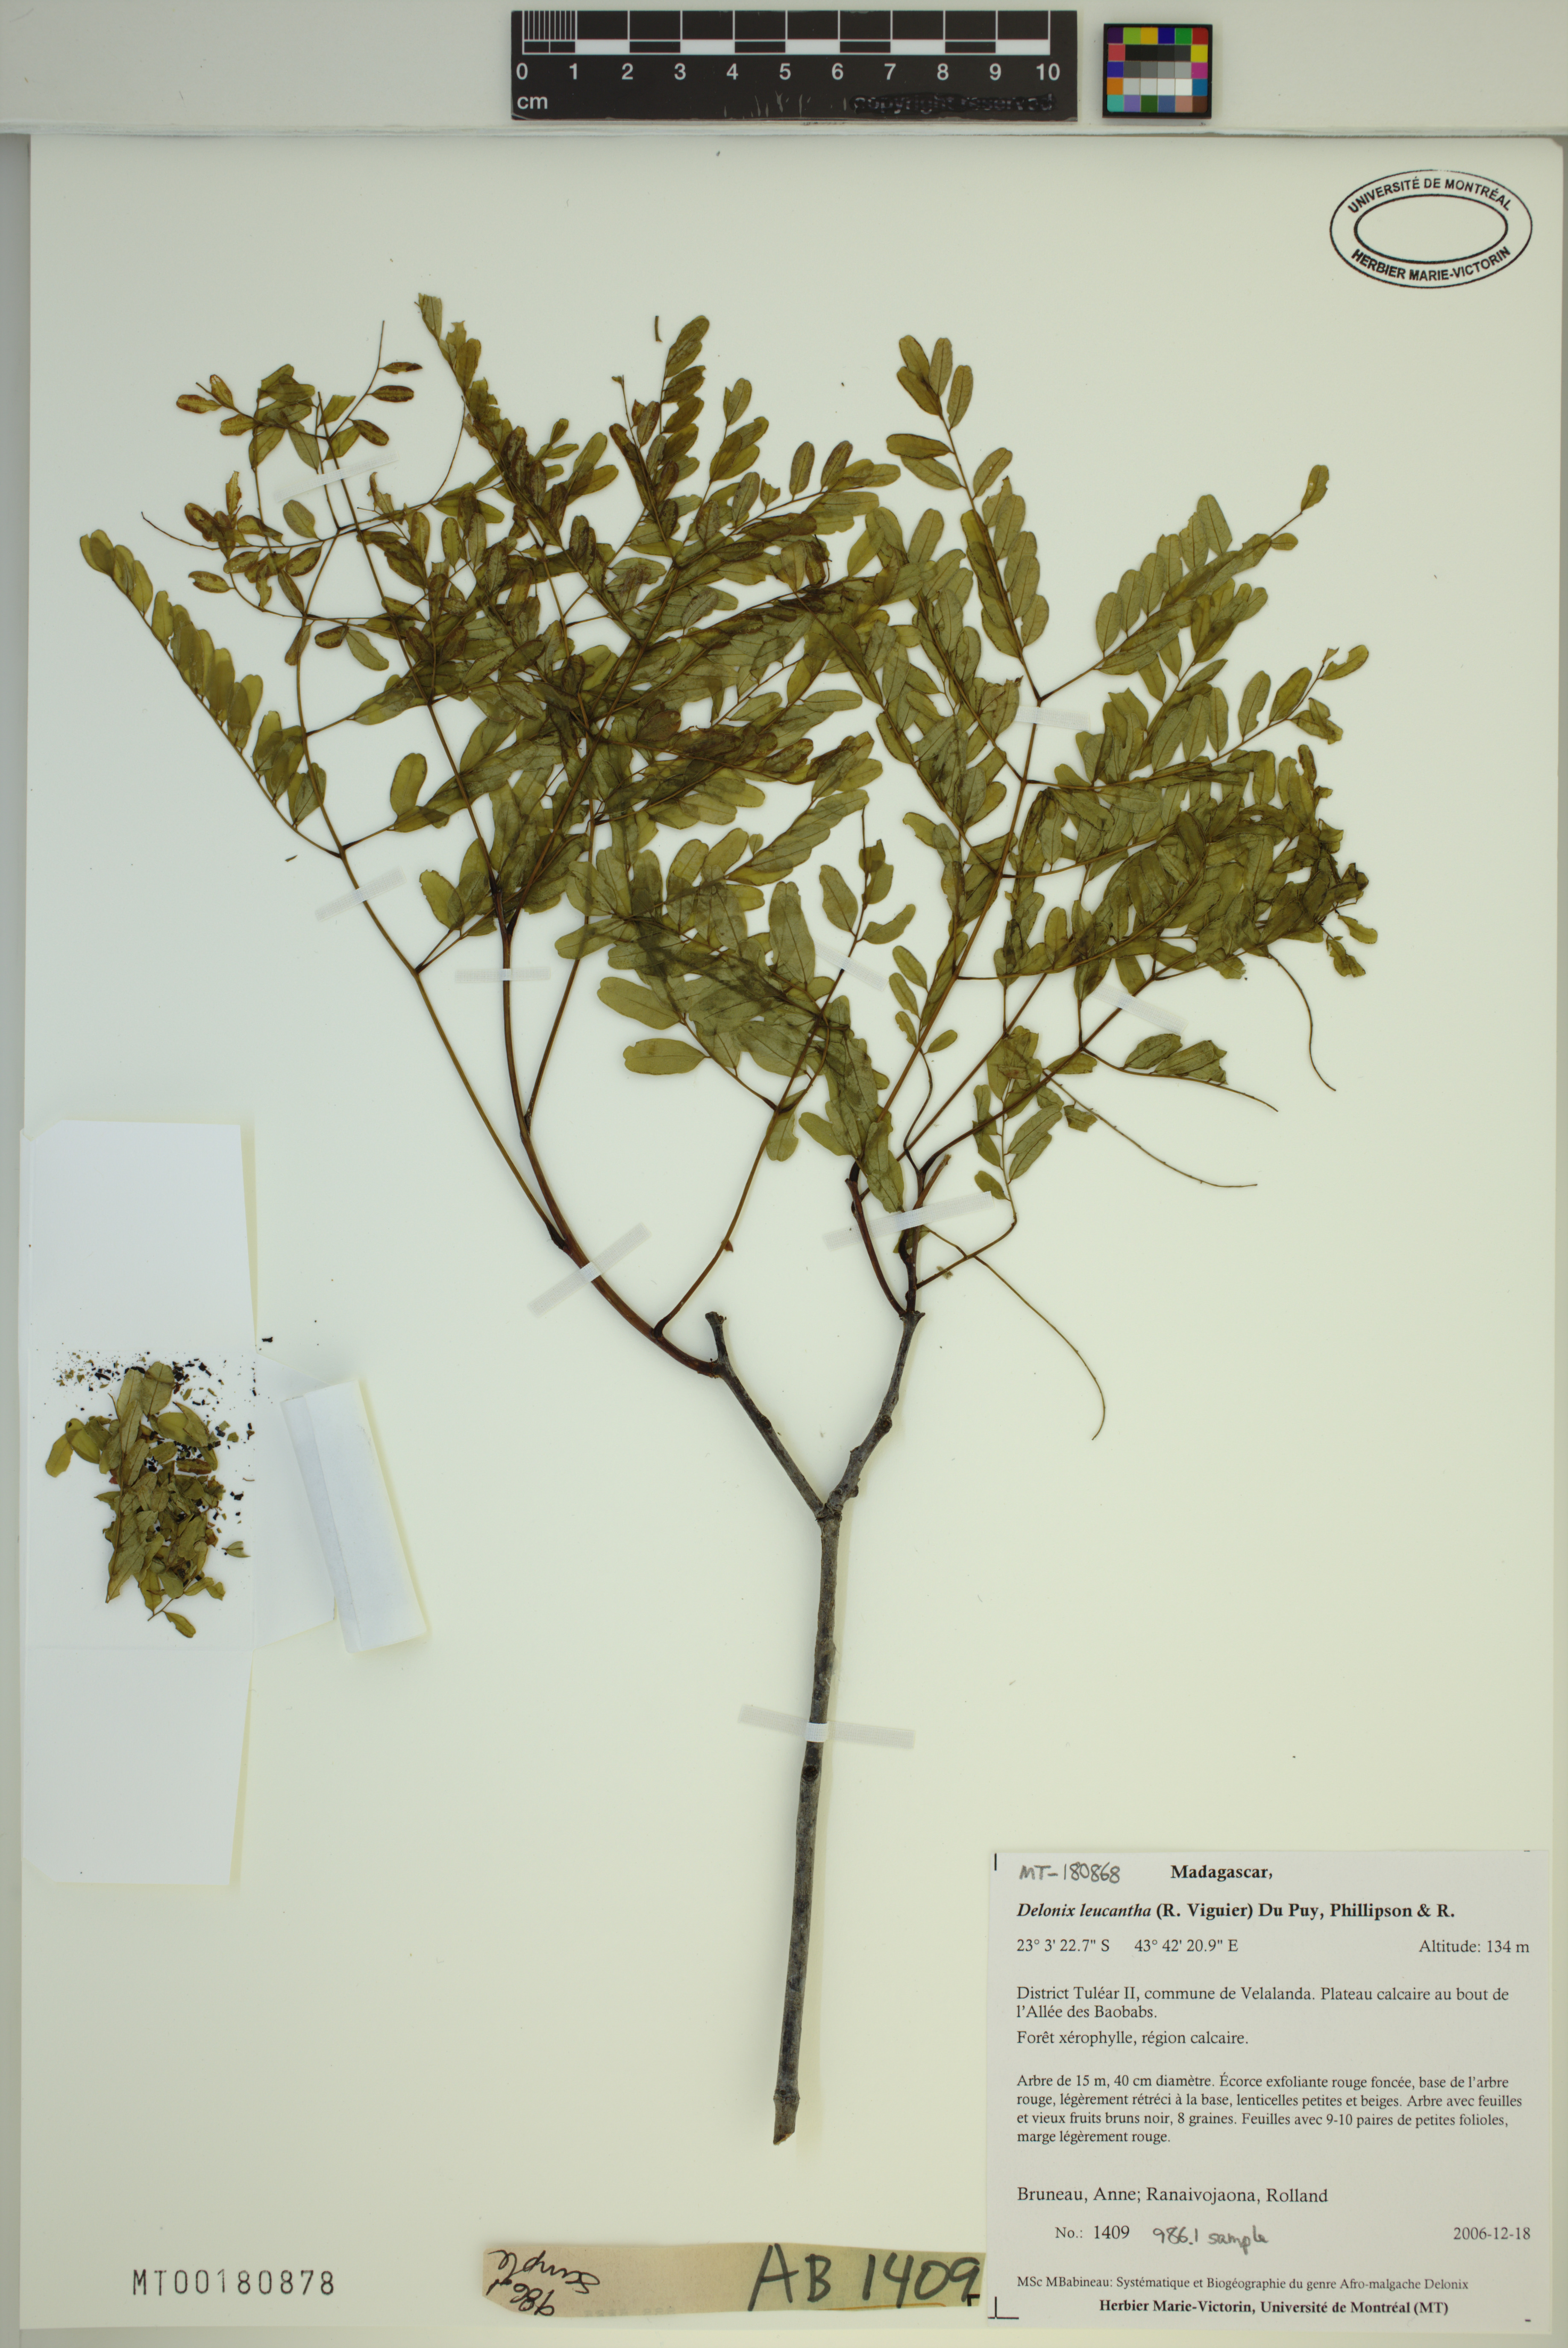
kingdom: Plantae
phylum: Tracheophyta
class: Magnoliopsida
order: Fabales
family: Fabaceae
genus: Delonix
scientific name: Delonix leucantha
